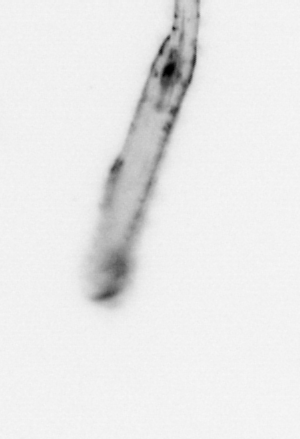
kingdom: Animalia
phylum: Chaetognatha
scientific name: Chaetognatha
